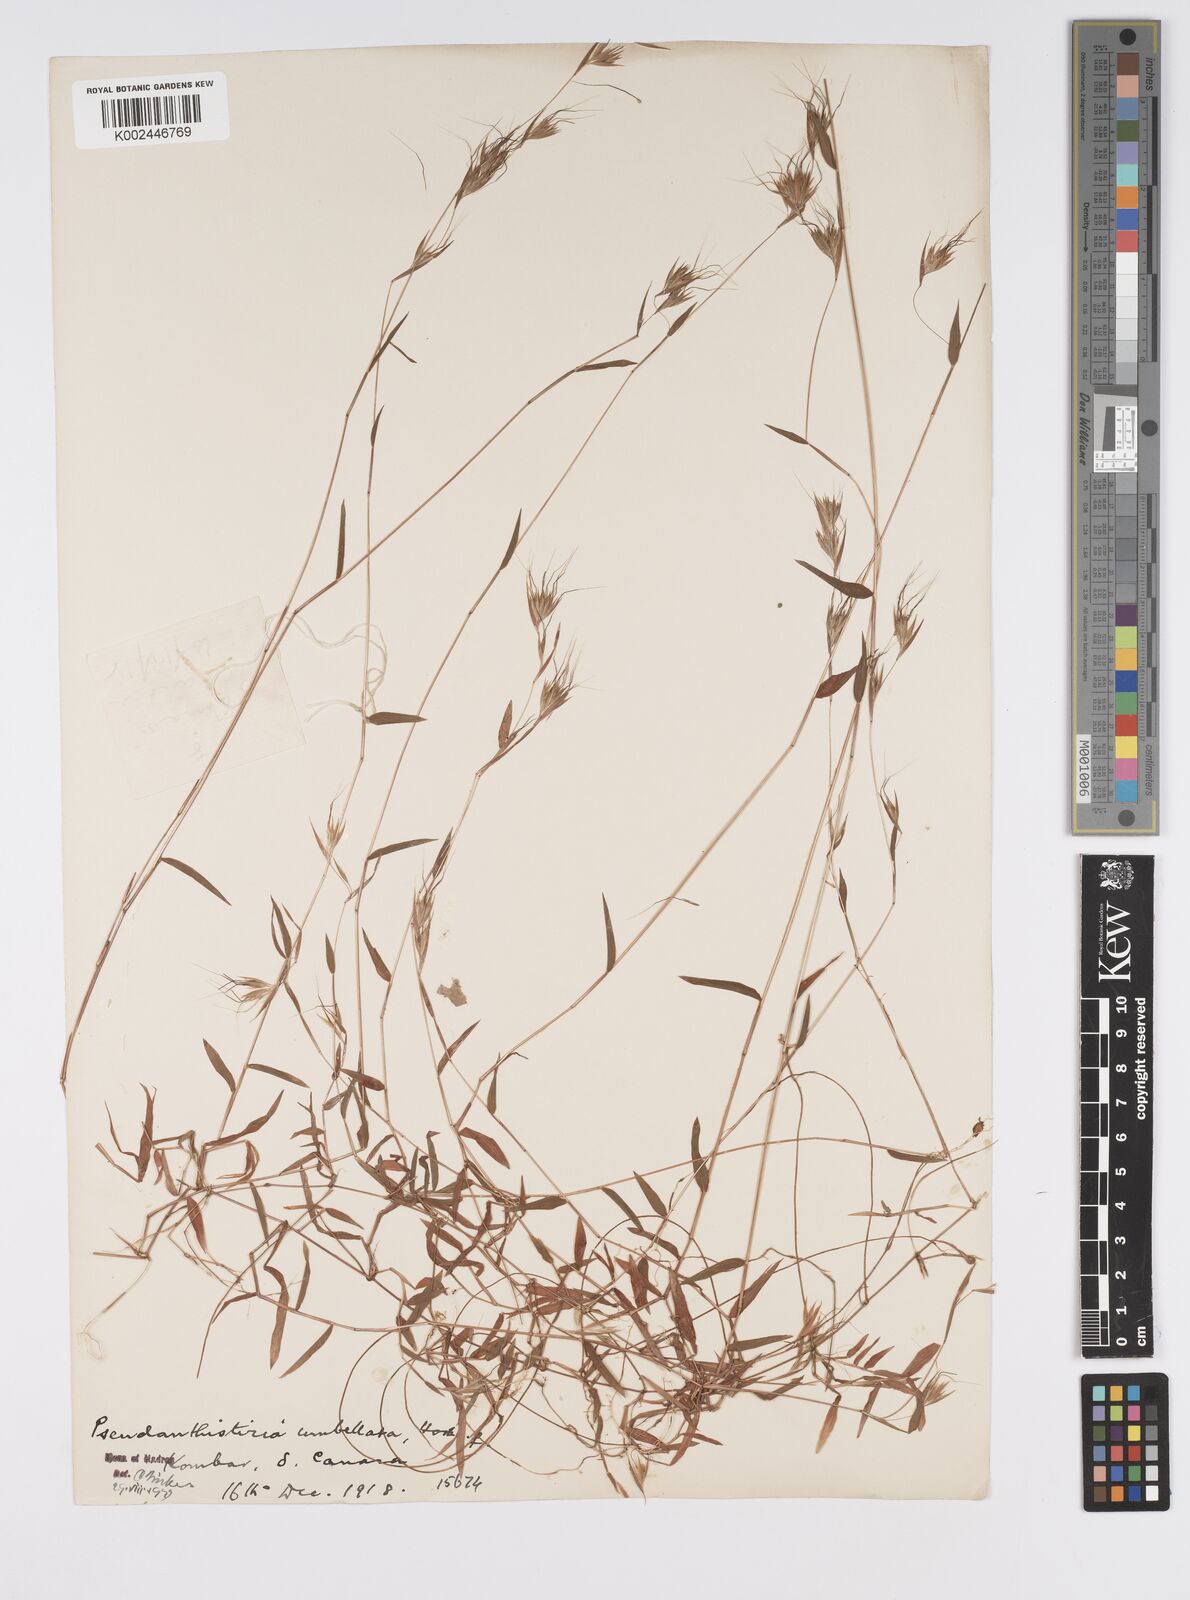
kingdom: Plantae
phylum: Tracheophyta
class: Liliopsida
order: Poales
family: Poaceae
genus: Pseudanthistiria
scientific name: Pseudanthistiria umbellata
